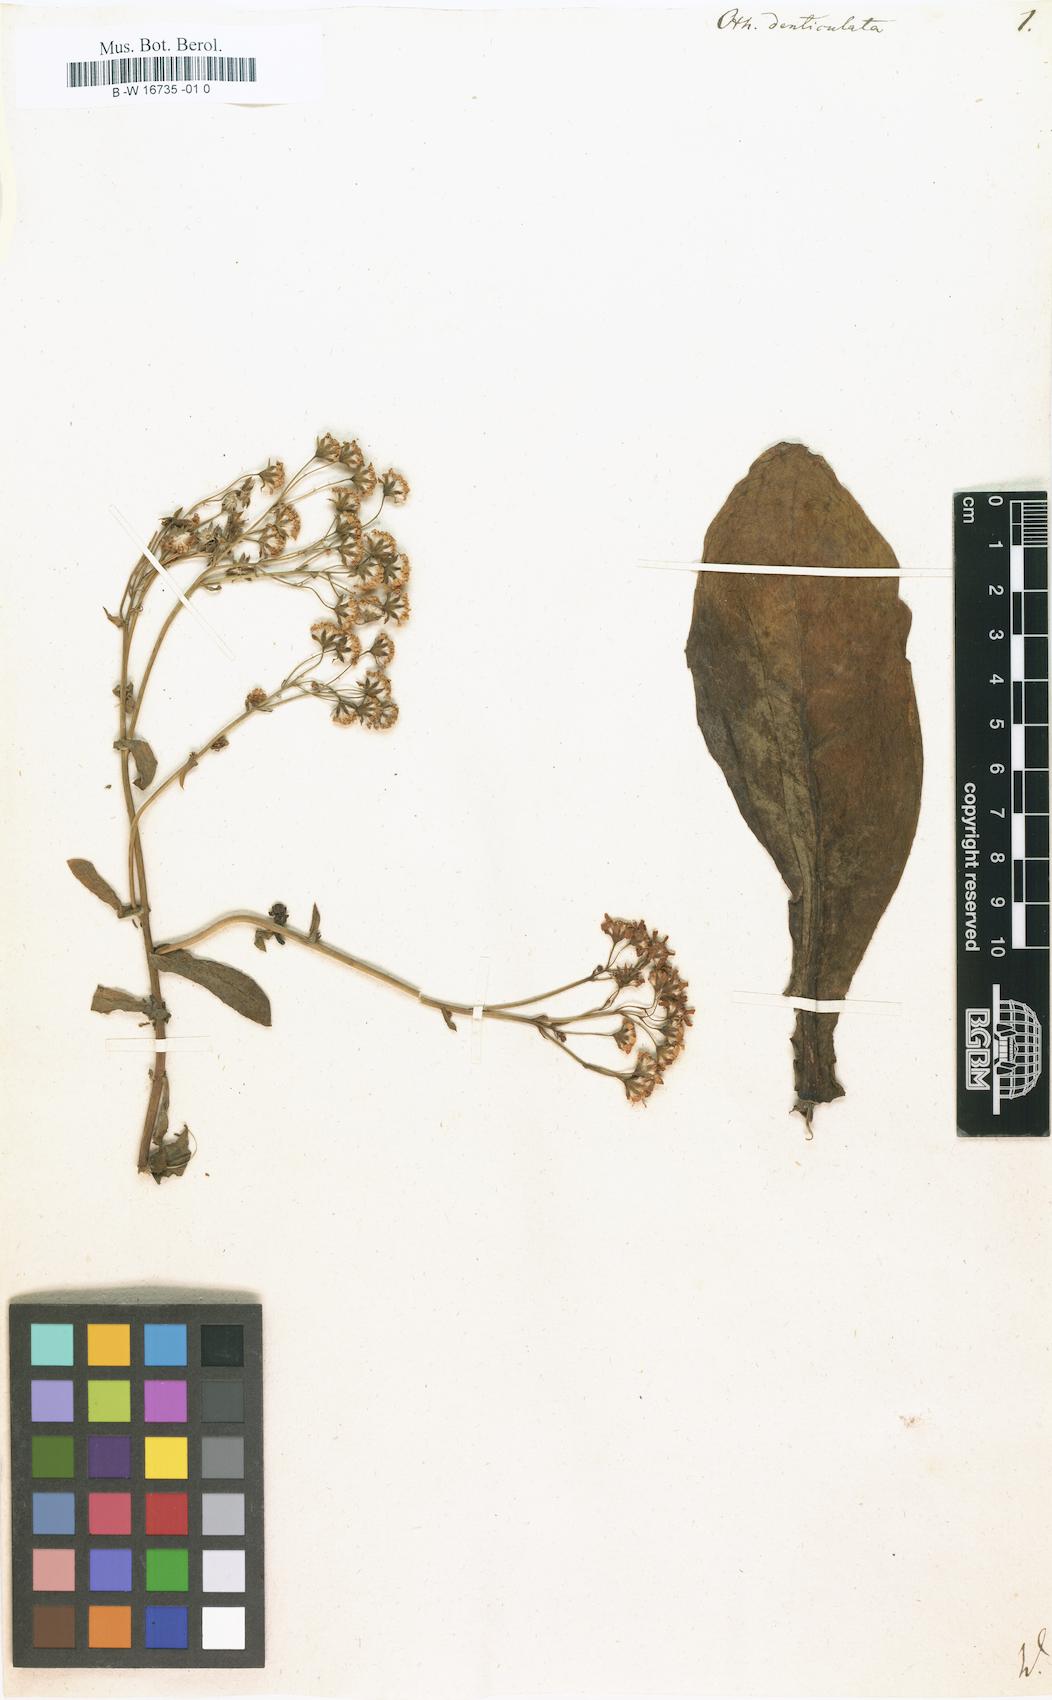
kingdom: Plantae
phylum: Tracheophyta
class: Magnoliopsida
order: Asterales
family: Asteraceae
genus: Othonna
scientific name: Othonna denticulata
